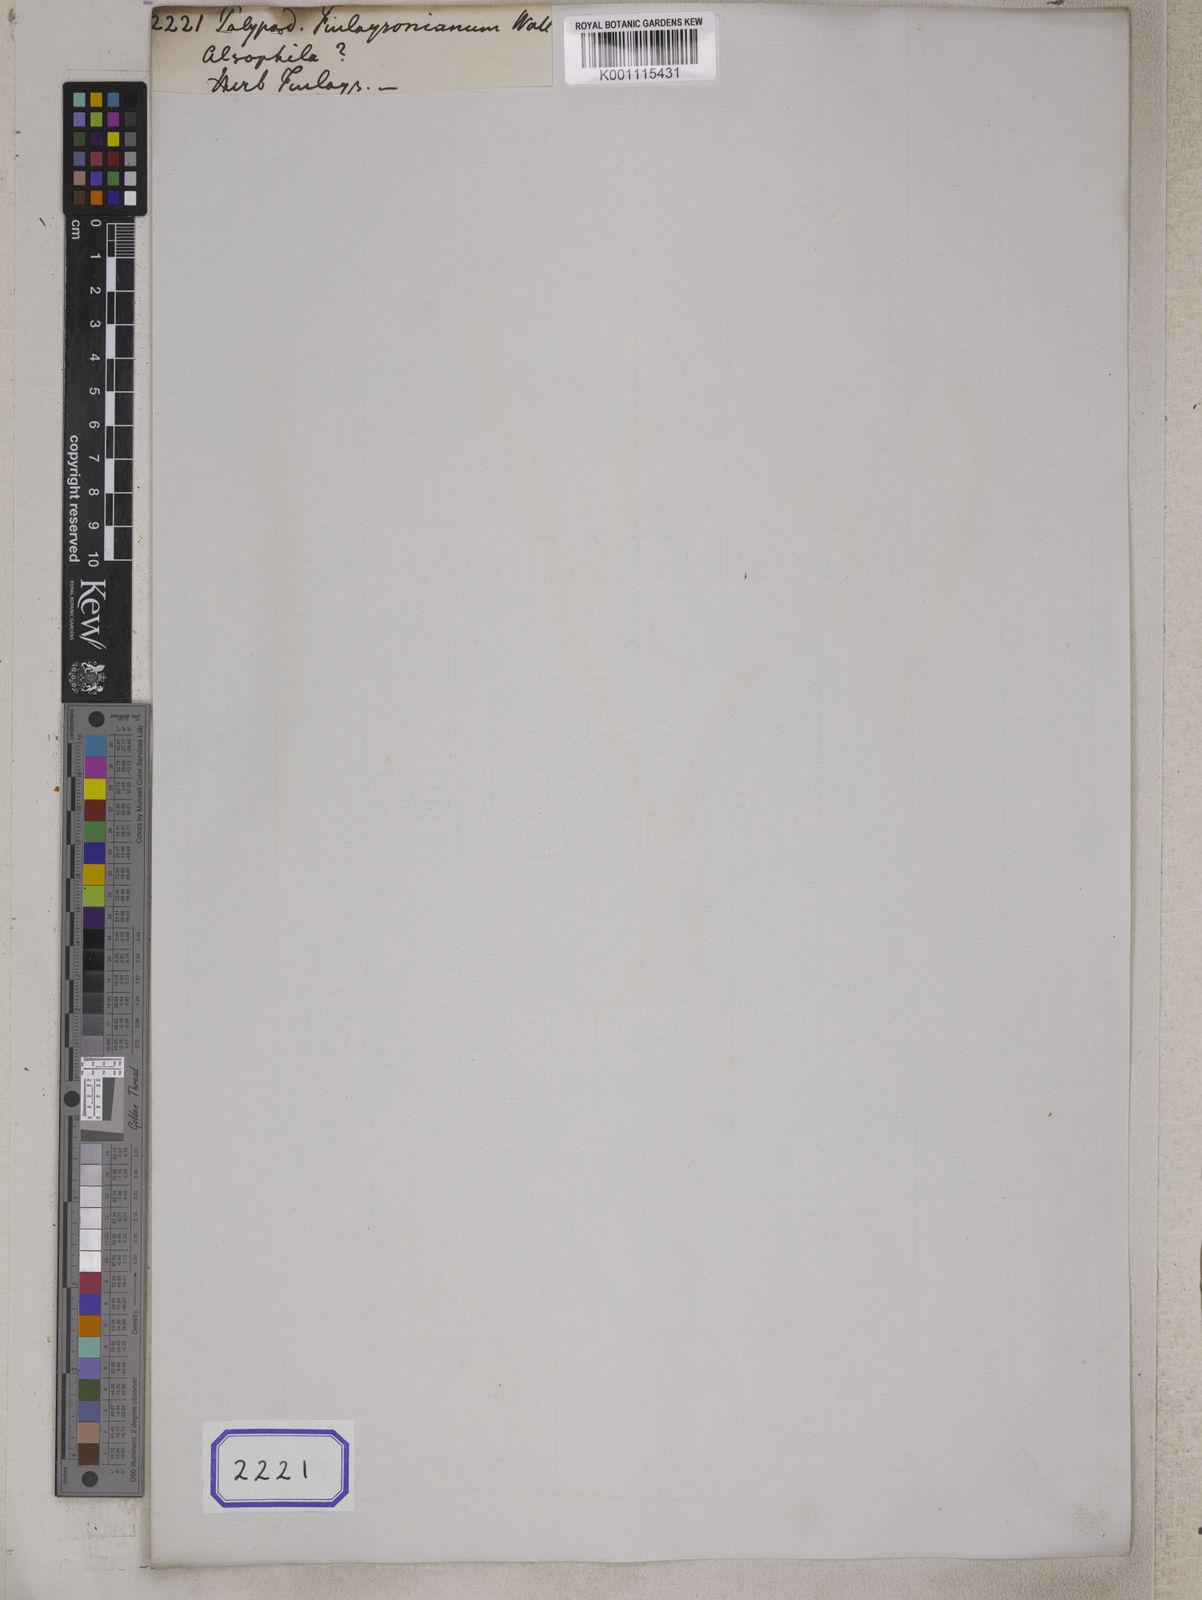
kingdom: Plantae
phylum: Tracheophyta
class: Polypodiopsida
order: Polypodiales
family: Polypodiaceae
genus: Polypodium
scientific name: Polypodium finlaysonianum
